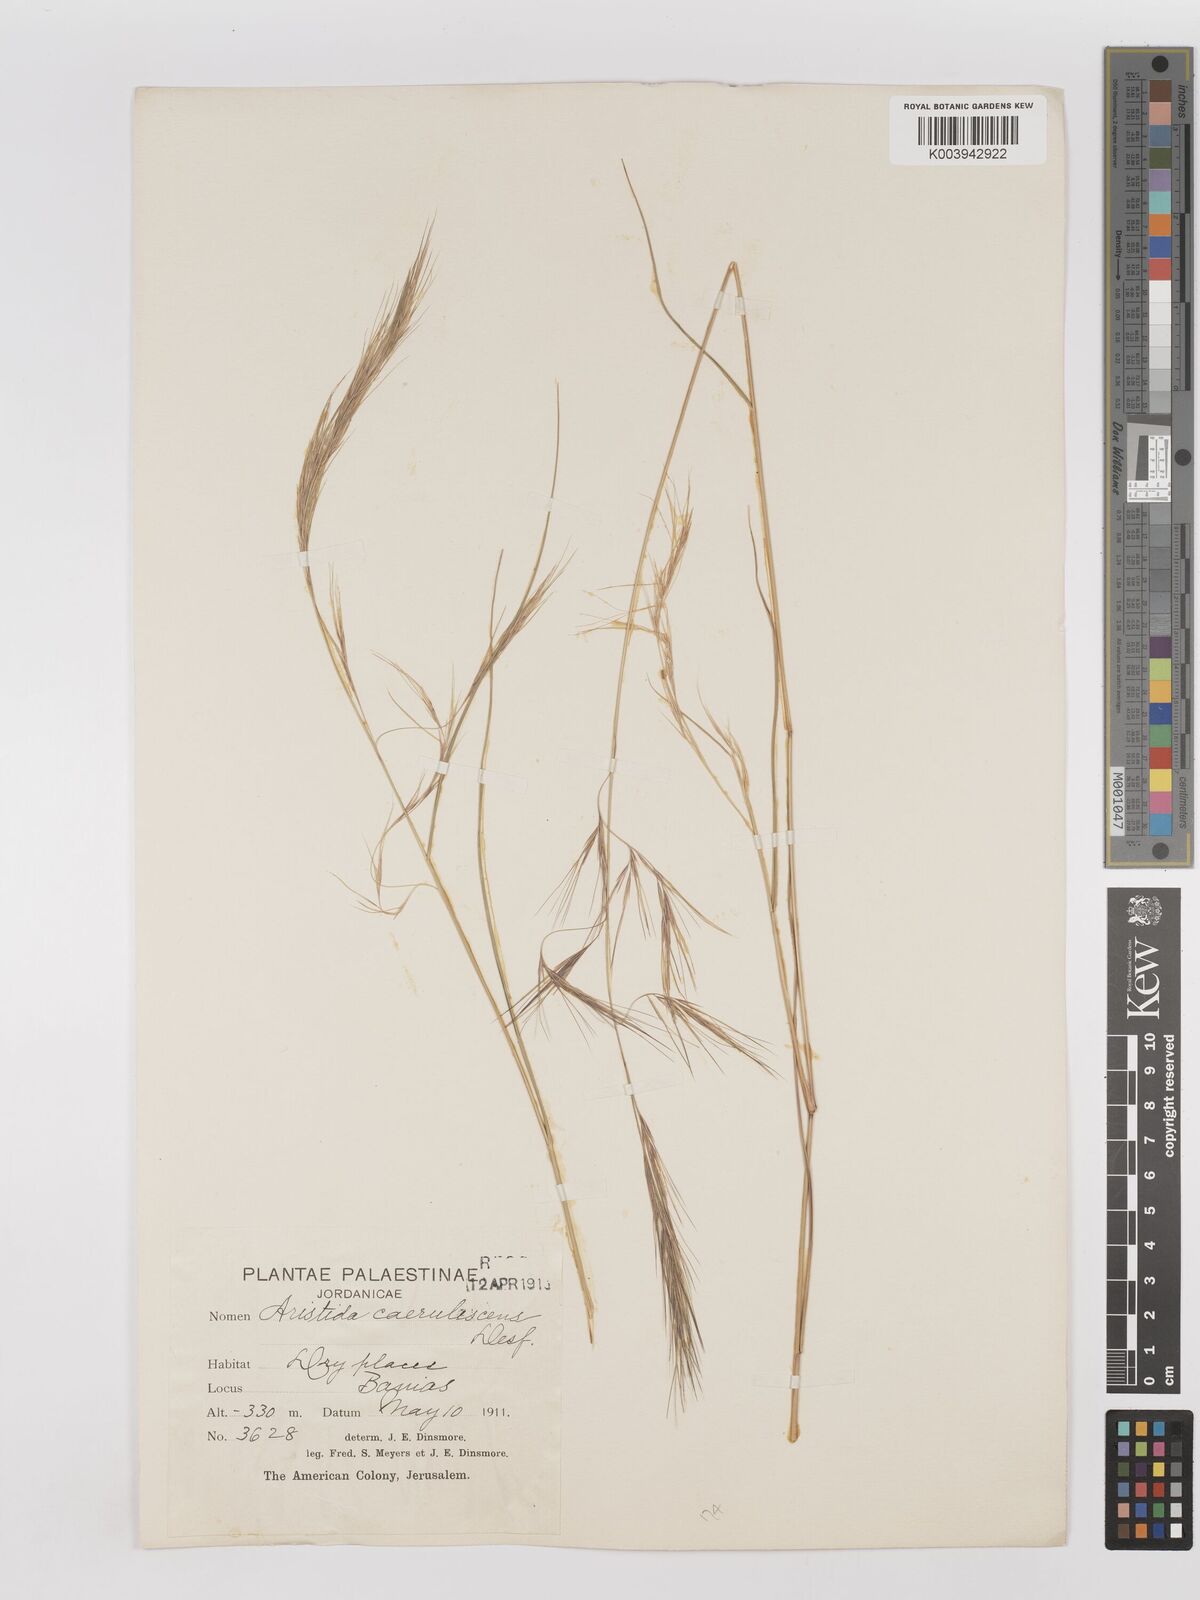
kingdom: Plantae
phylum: Tracheophyta
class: Liliopsida
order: Poales
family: Poaceae
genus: Aristida
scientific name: Aristida adscensionis
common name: Sixweeks threeawn
